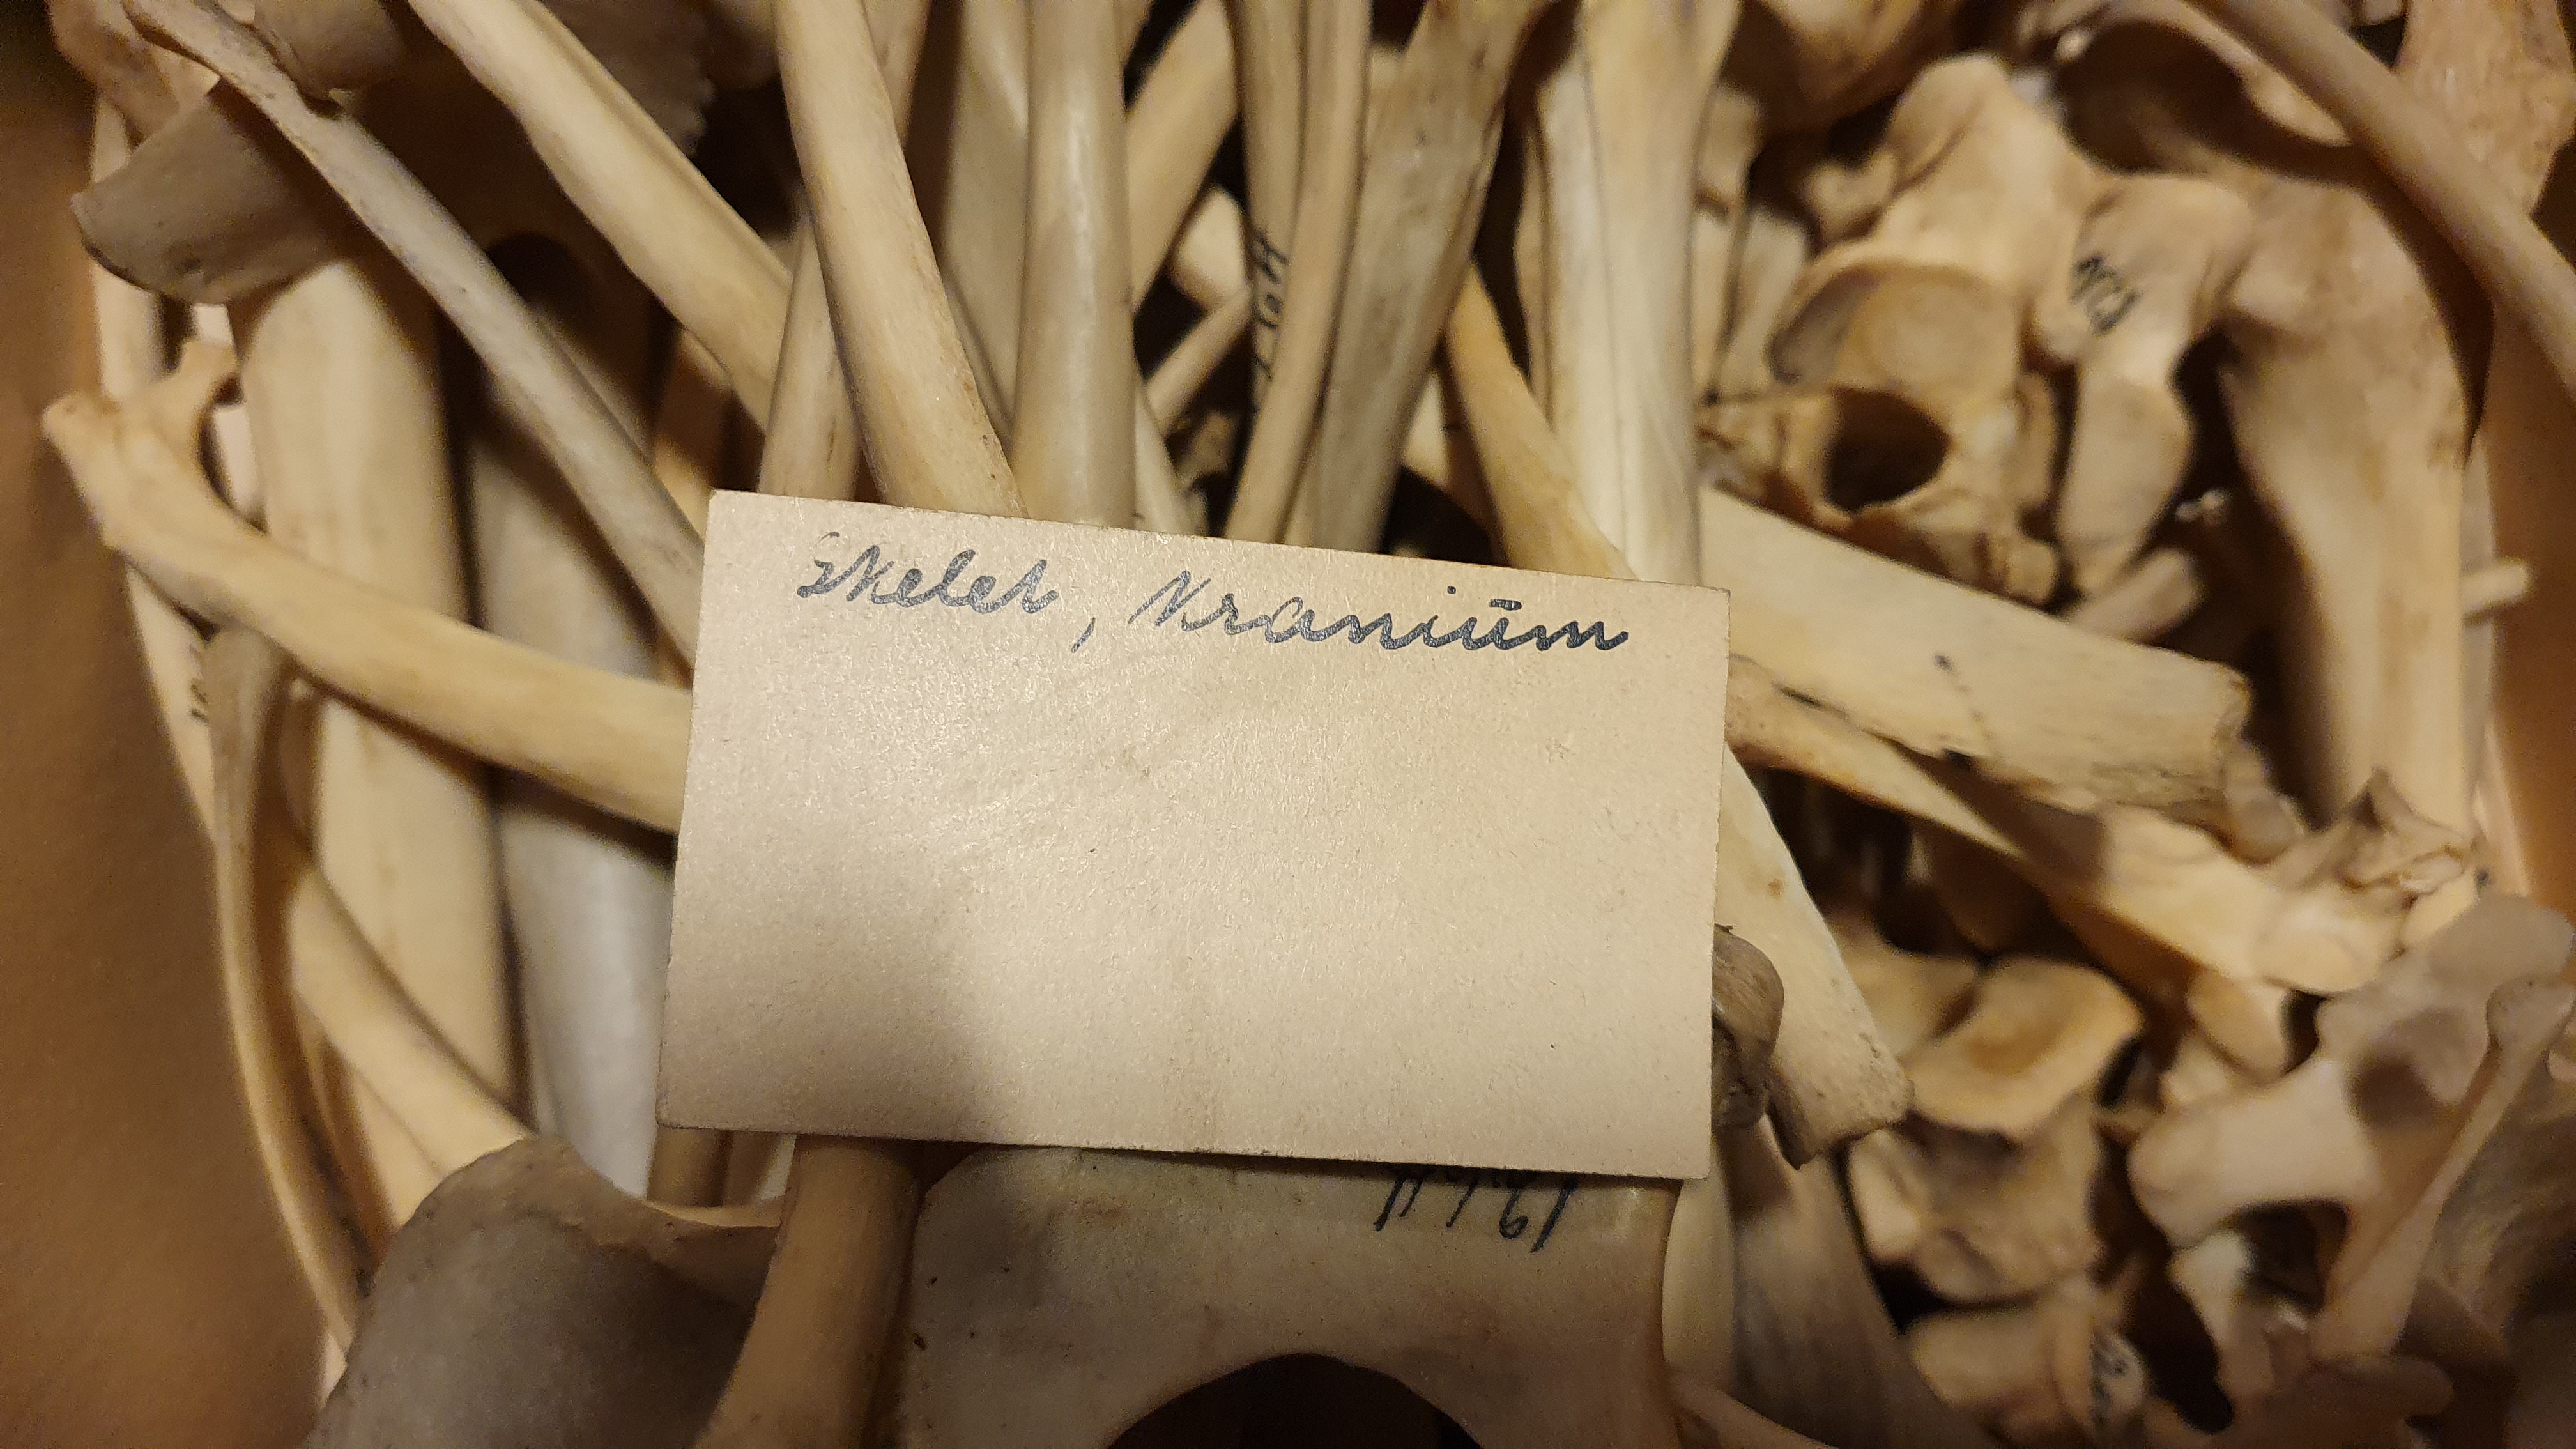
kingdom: Animalia
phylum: Chordata
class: Mammalia
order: Carnivora
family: Canidae
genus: Canis
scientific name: Canis lupus
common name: Gray wolf
